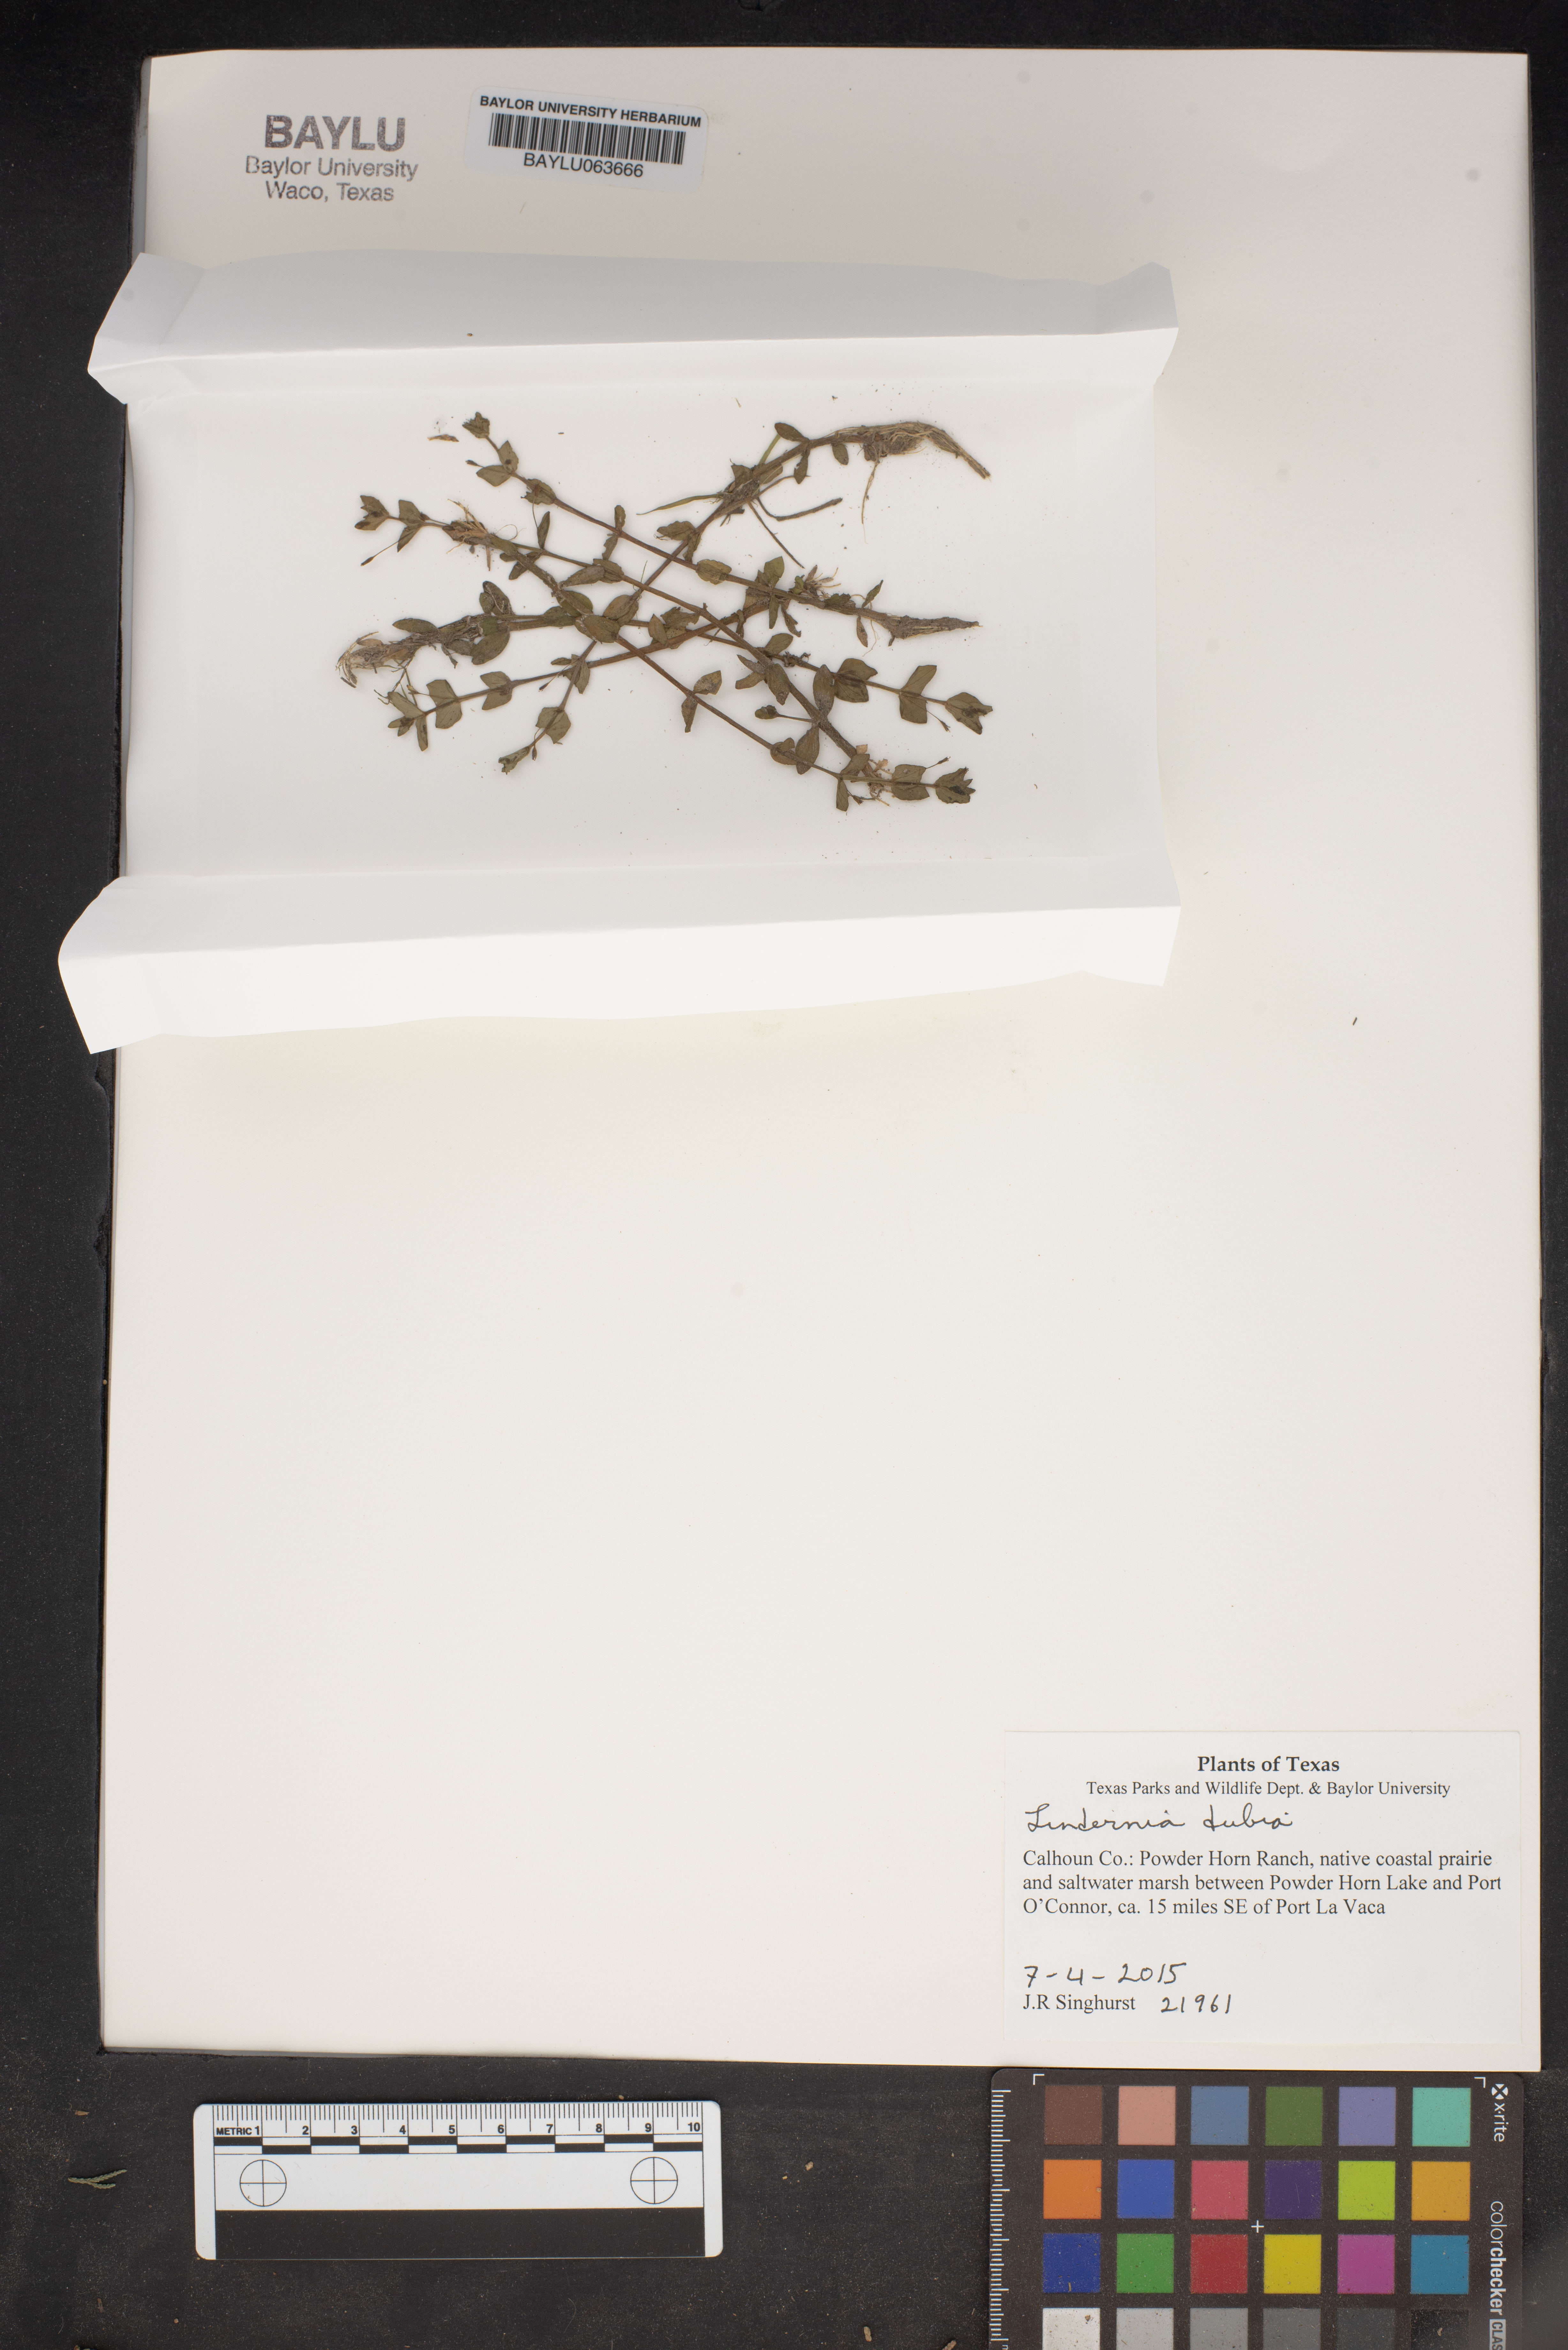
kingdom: Plantae
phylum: Tracheophyta
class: Magnoliopsida
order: Lamiales
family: Linderniaceae
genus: Lindernia
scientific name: Lindernia dubia
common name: Annual false pimpernel
